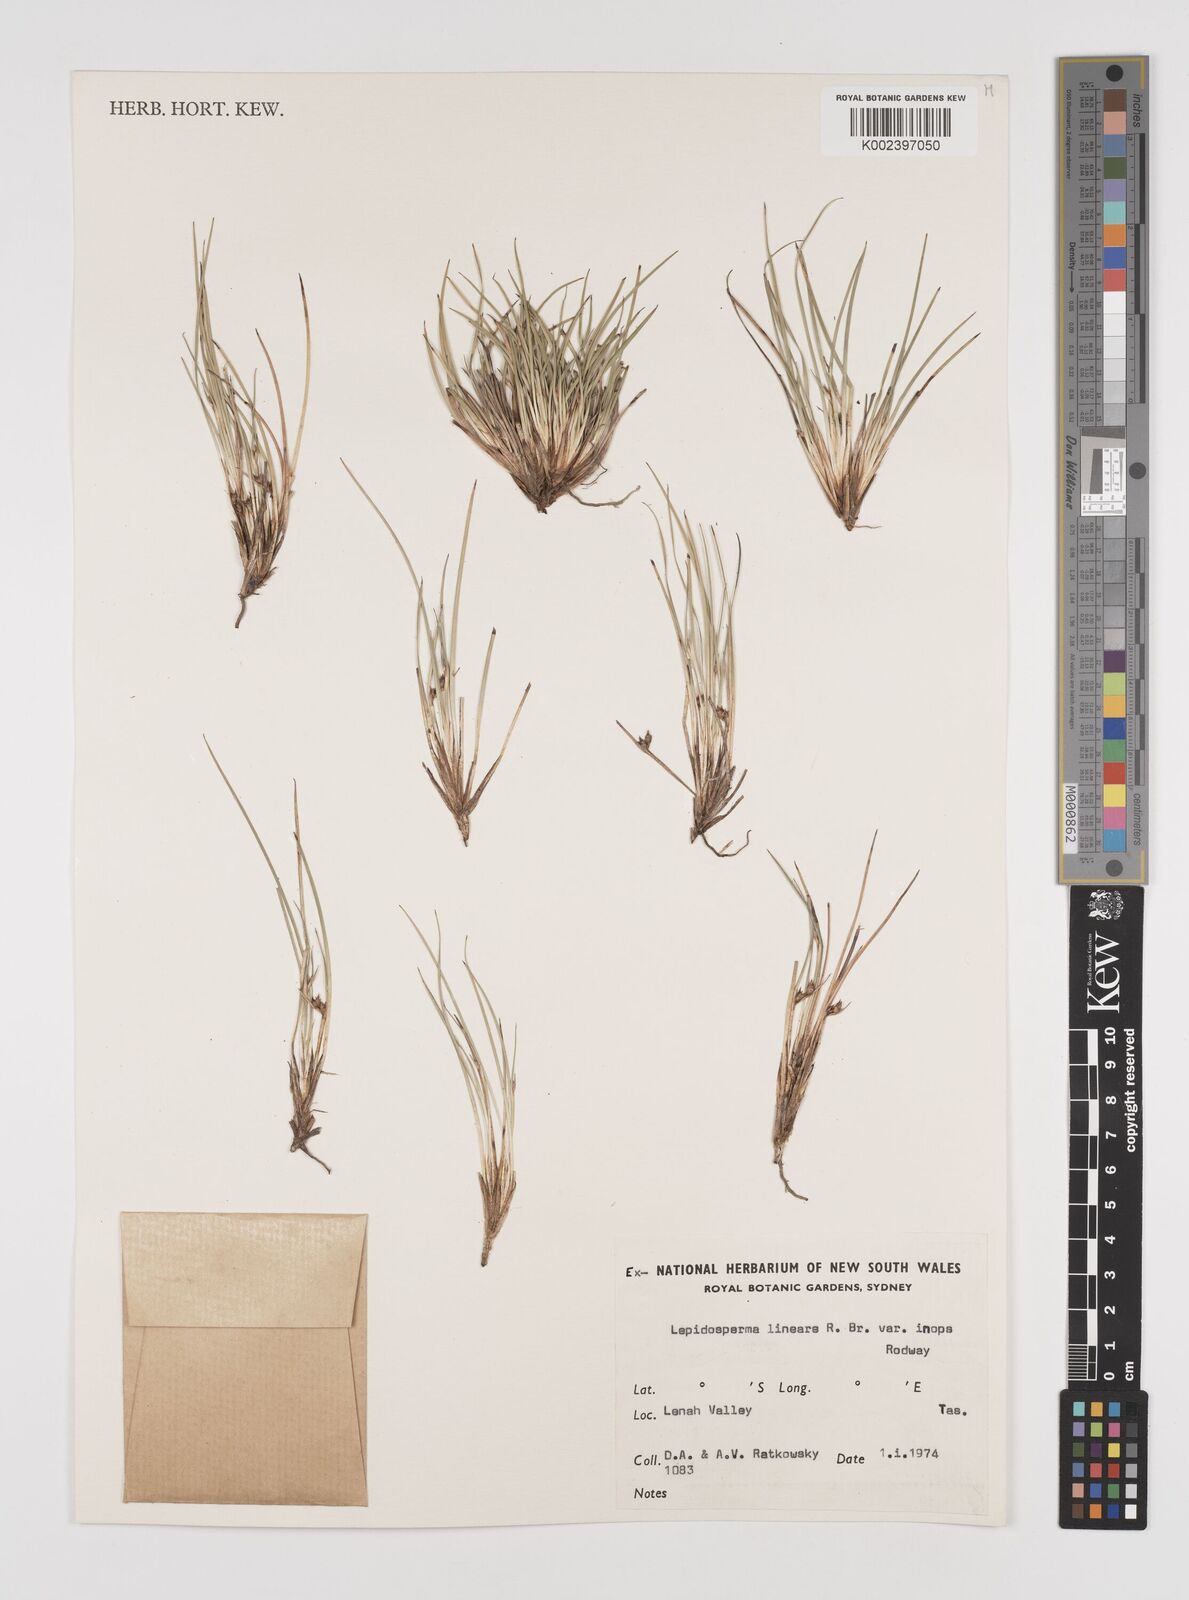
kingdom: Plantae
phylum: Tracheophyta
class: Liliopsida
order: Poales
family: Cyperaceae
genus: Lepidosperma
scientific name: Lepidosperma inops
